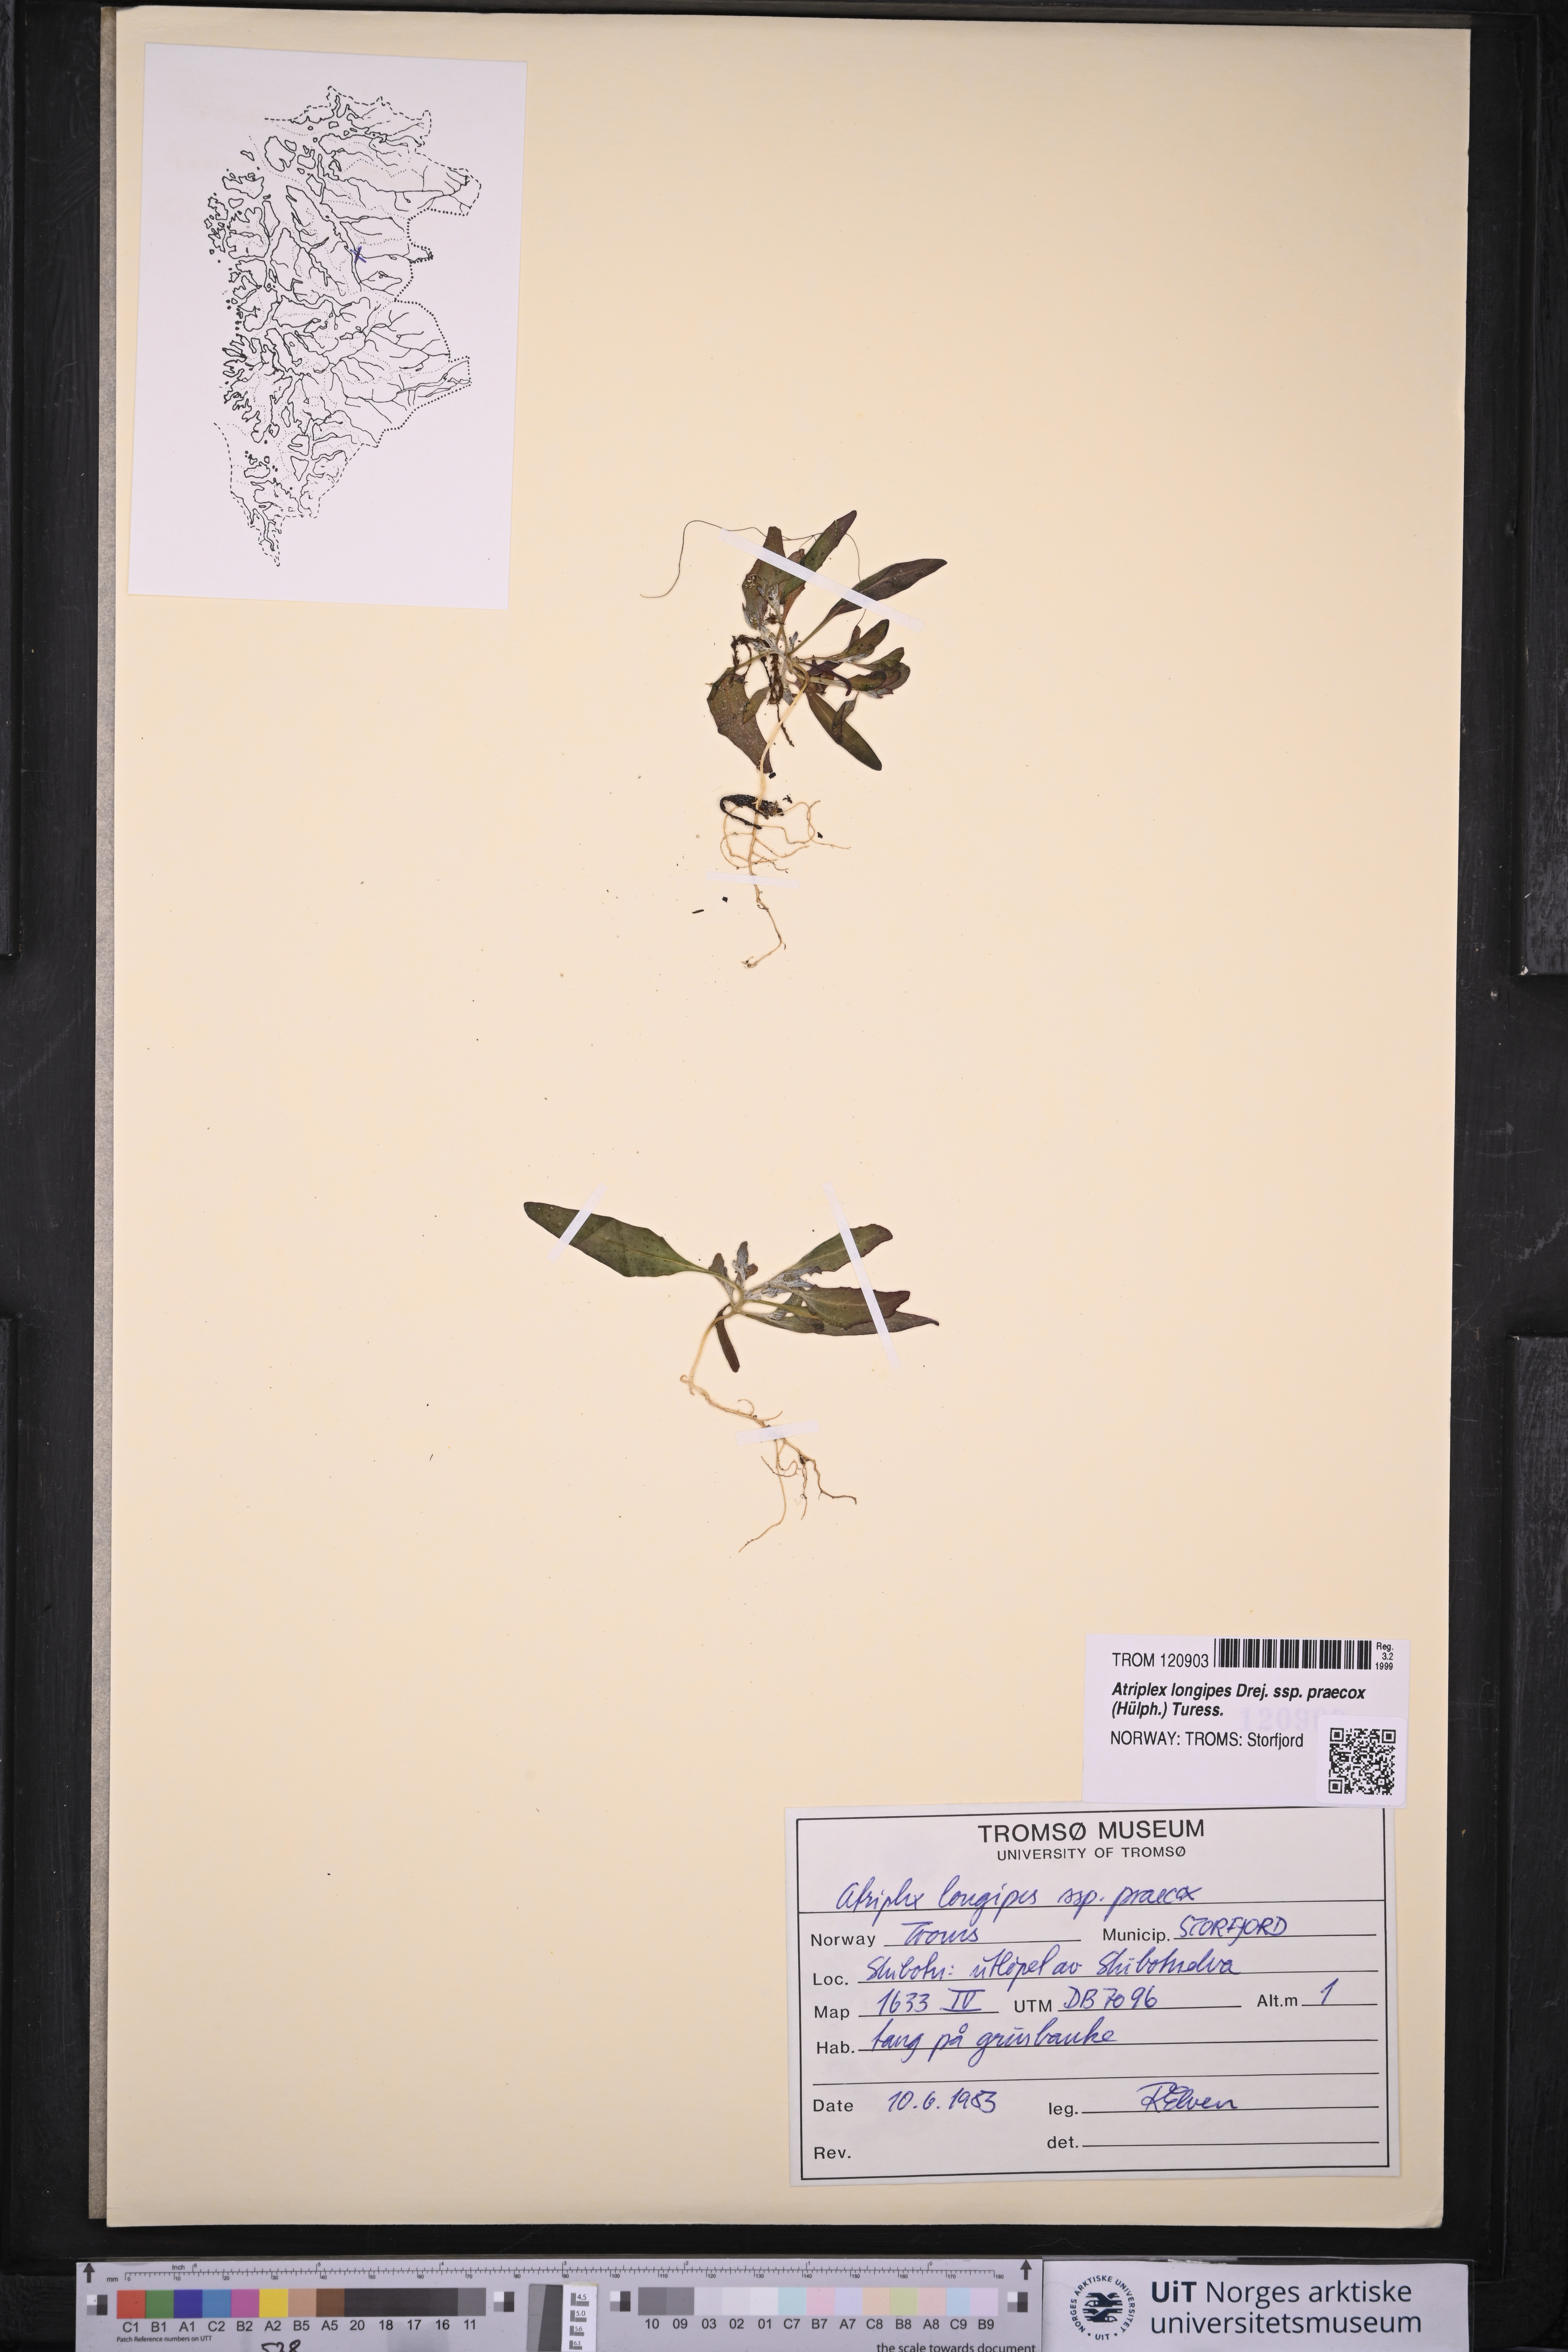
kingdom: Plantae
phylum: Tracheophyta
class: Magnoliopsida
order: Caryophyllales
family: Amaranthaceae
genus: Atriplex
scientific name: Atriplex praecox
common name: Early orache
